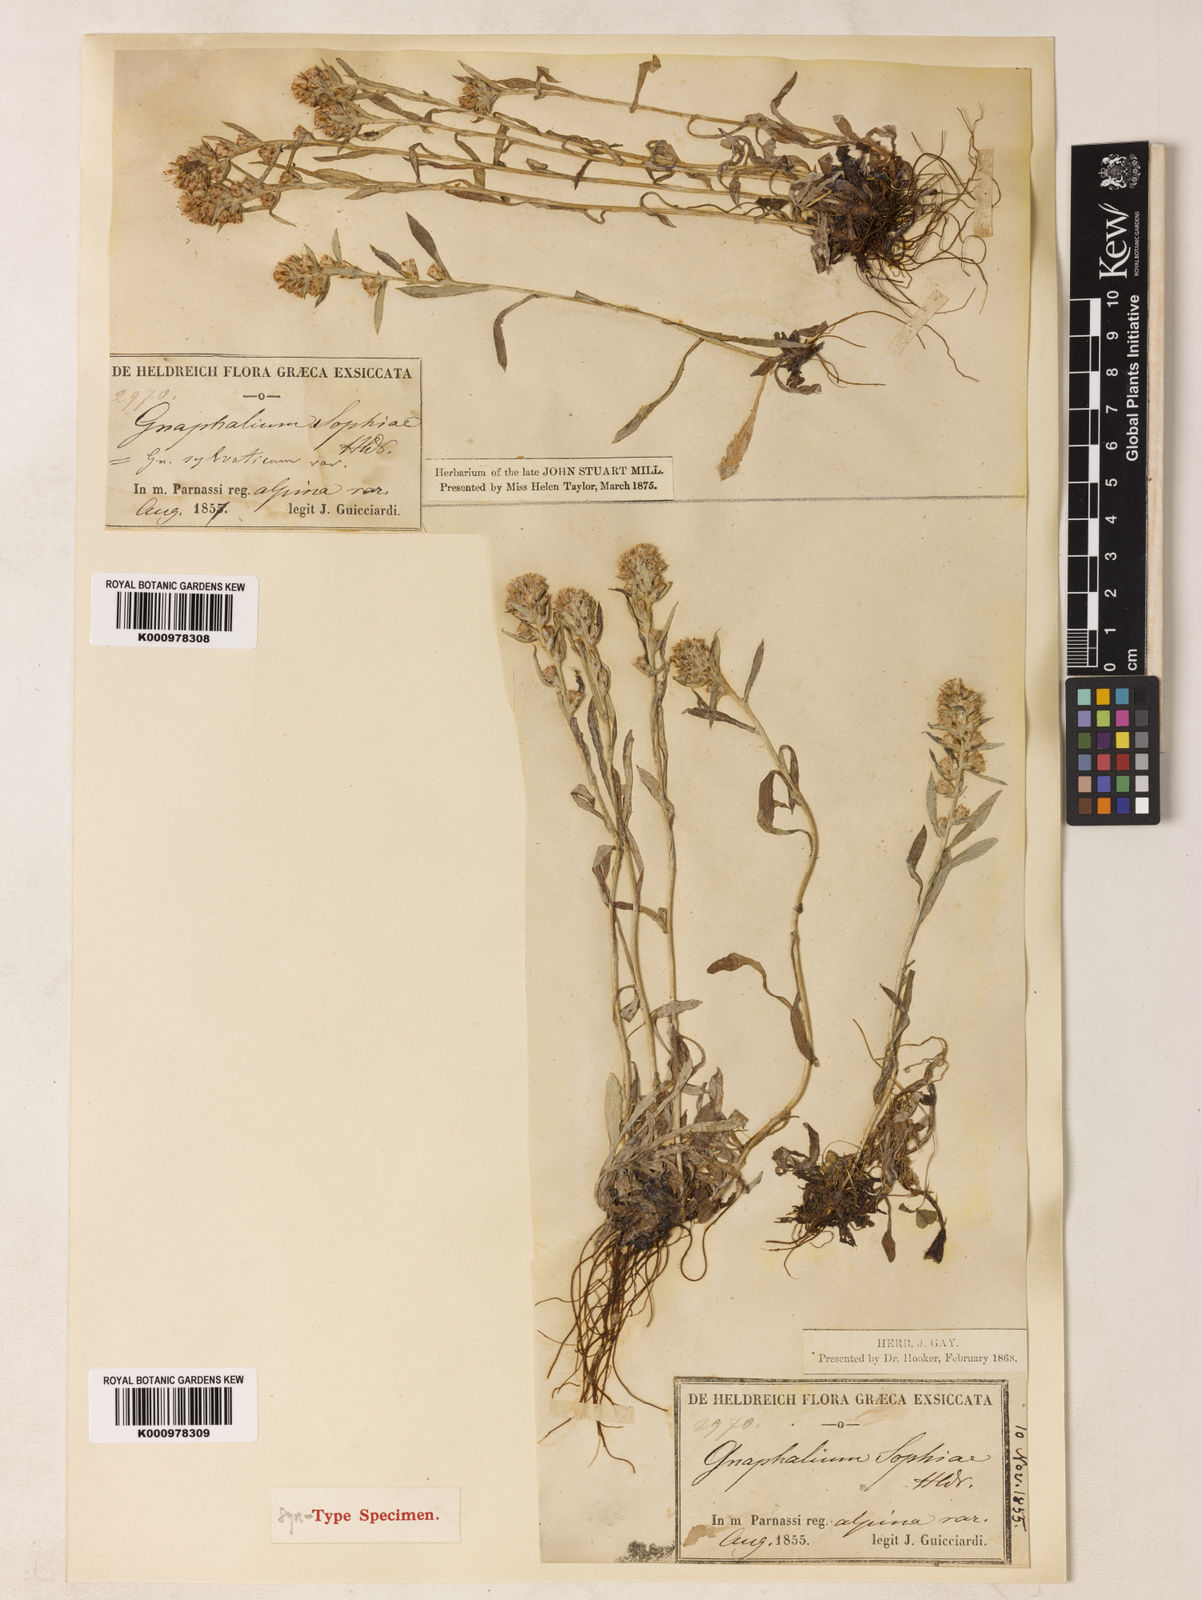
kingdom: Plantae
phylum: Tracheophyta
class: Magnoliopsida
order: Asterales
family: Asteraceae
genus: Omalotheca
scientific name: Omalotheca sylvatica
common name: Heath cudweed
